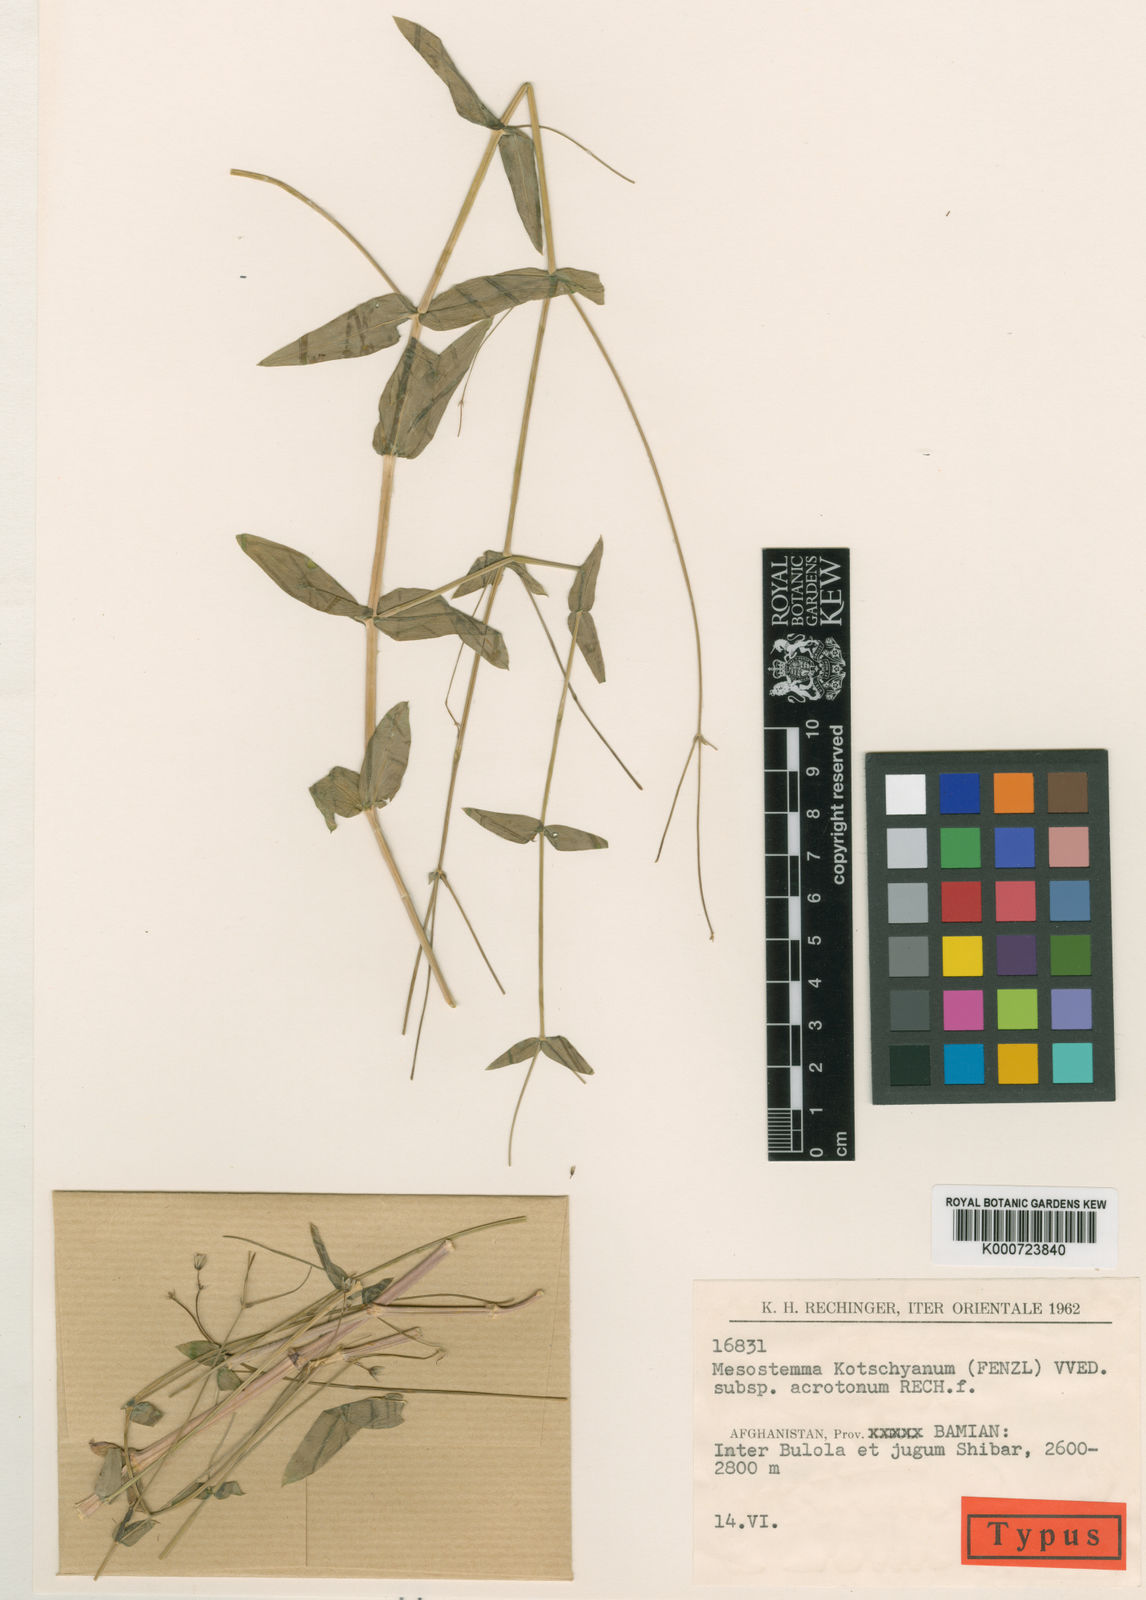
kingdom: Plantae
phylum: Tracheophyta
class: Magnoliopsida
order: Caryophyllales
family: Caryophyllaceae
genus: Mesostemma
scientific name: Mesostemma kotschyanum
